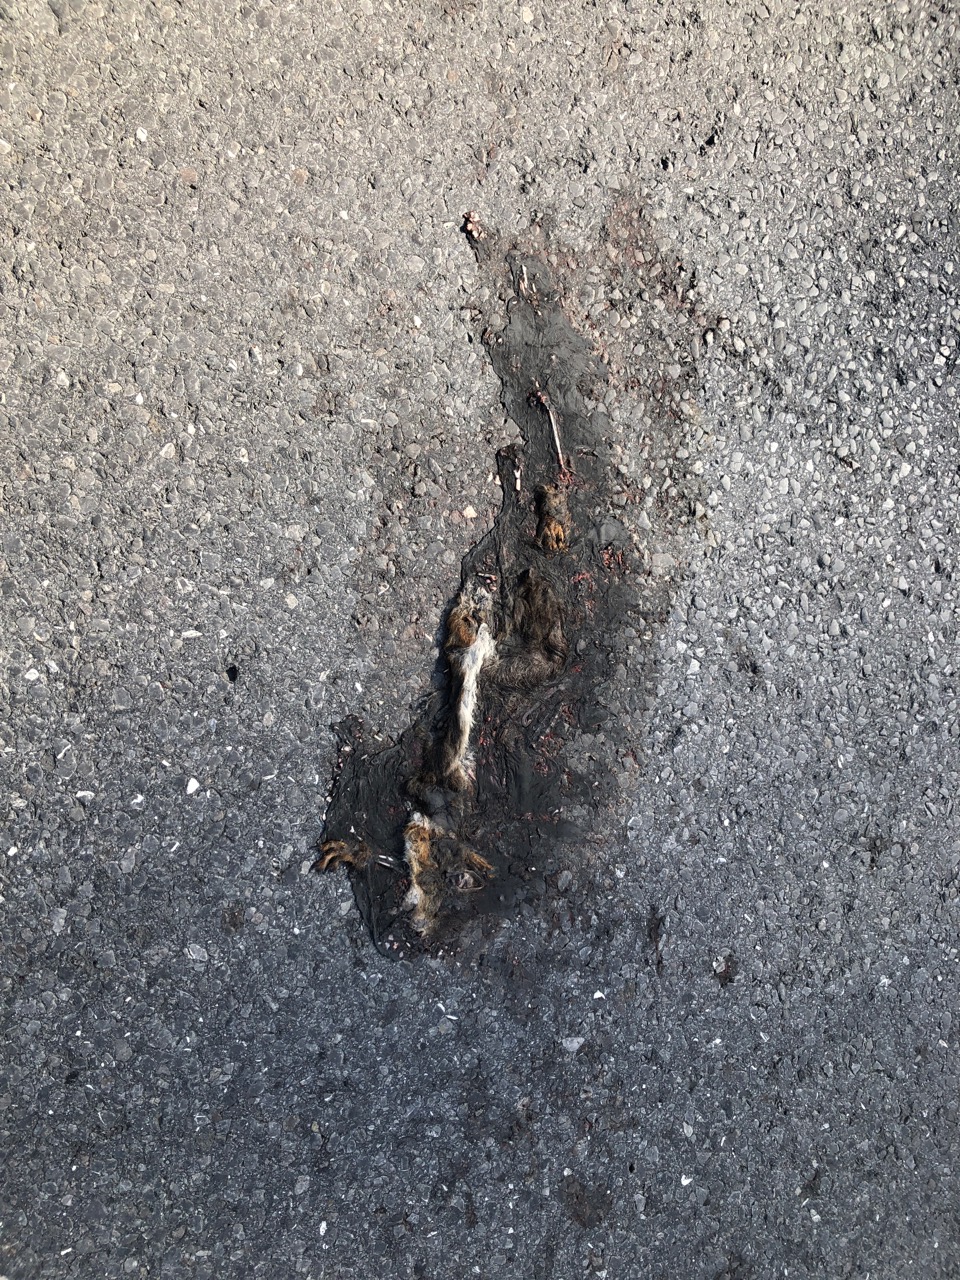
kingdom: Animalia
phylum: Chordata
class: Mammalia
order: Rodentia
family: Sciuridae
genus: Sciurus
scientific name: Sciurus vulgaris
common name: Eurasian red squirrel
